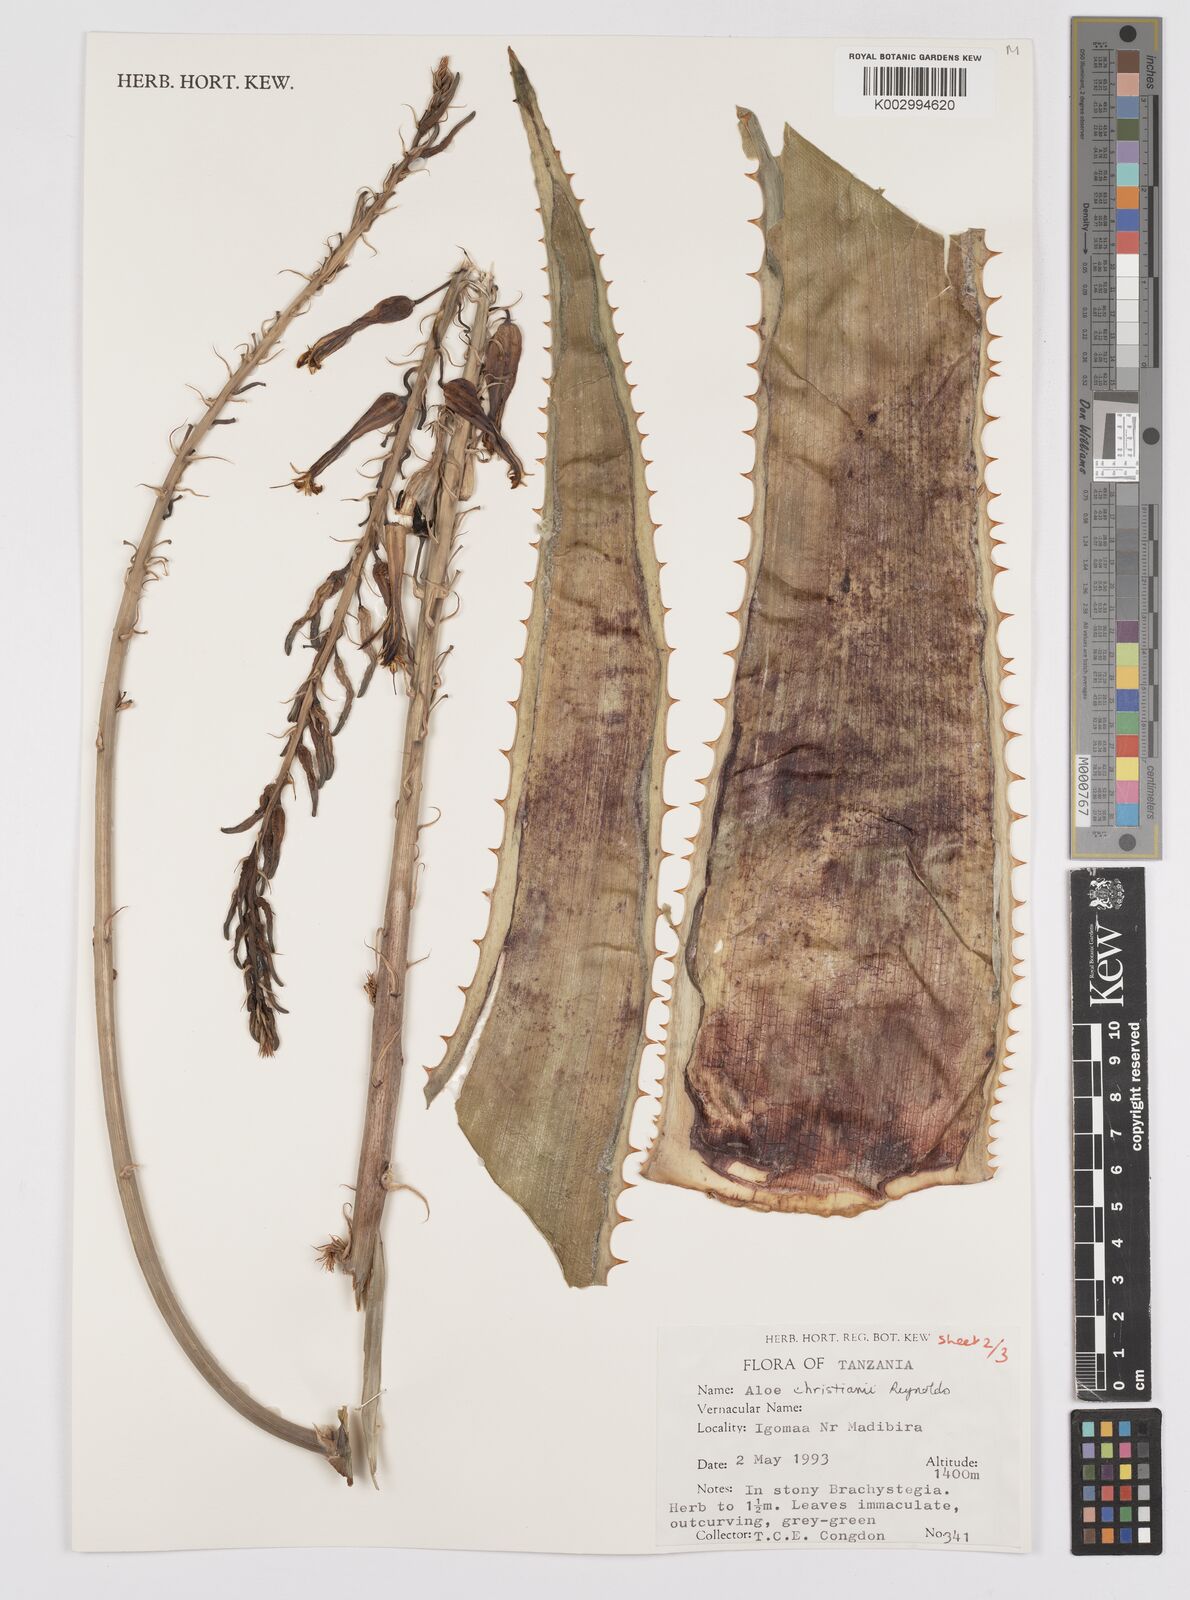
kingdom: Plantae
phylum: Tracheophyta
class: Liliopsida
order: Asparagales
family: Asphodelaceae
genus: Aloe
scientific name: Aloe christianii
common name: Basil christian's aloe
